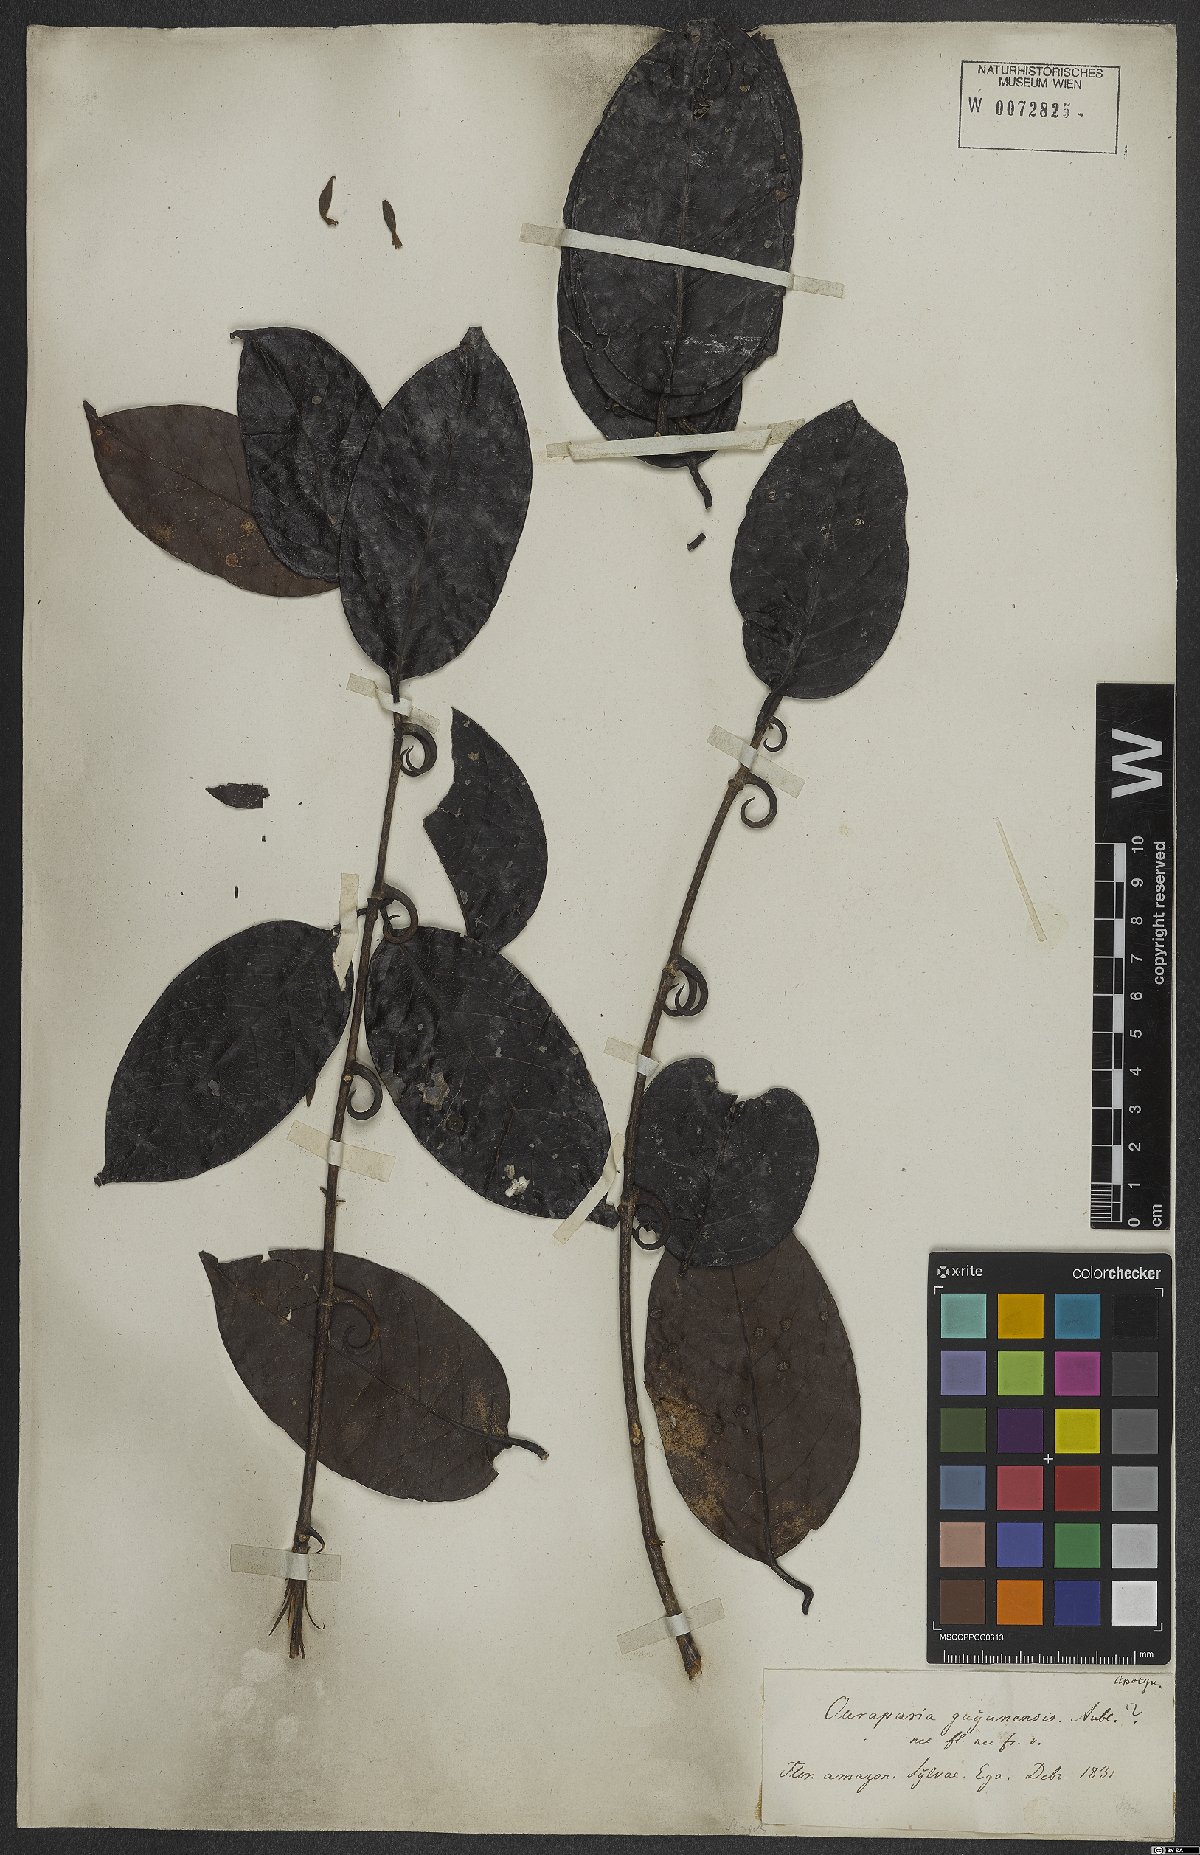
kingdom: Plantae
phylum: Tracheophyta
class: Magnoliopsida
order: Gentianales
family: Rubiaceae
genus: Uncaria
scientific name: Uncaria guianensis
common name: Cat's-claw
